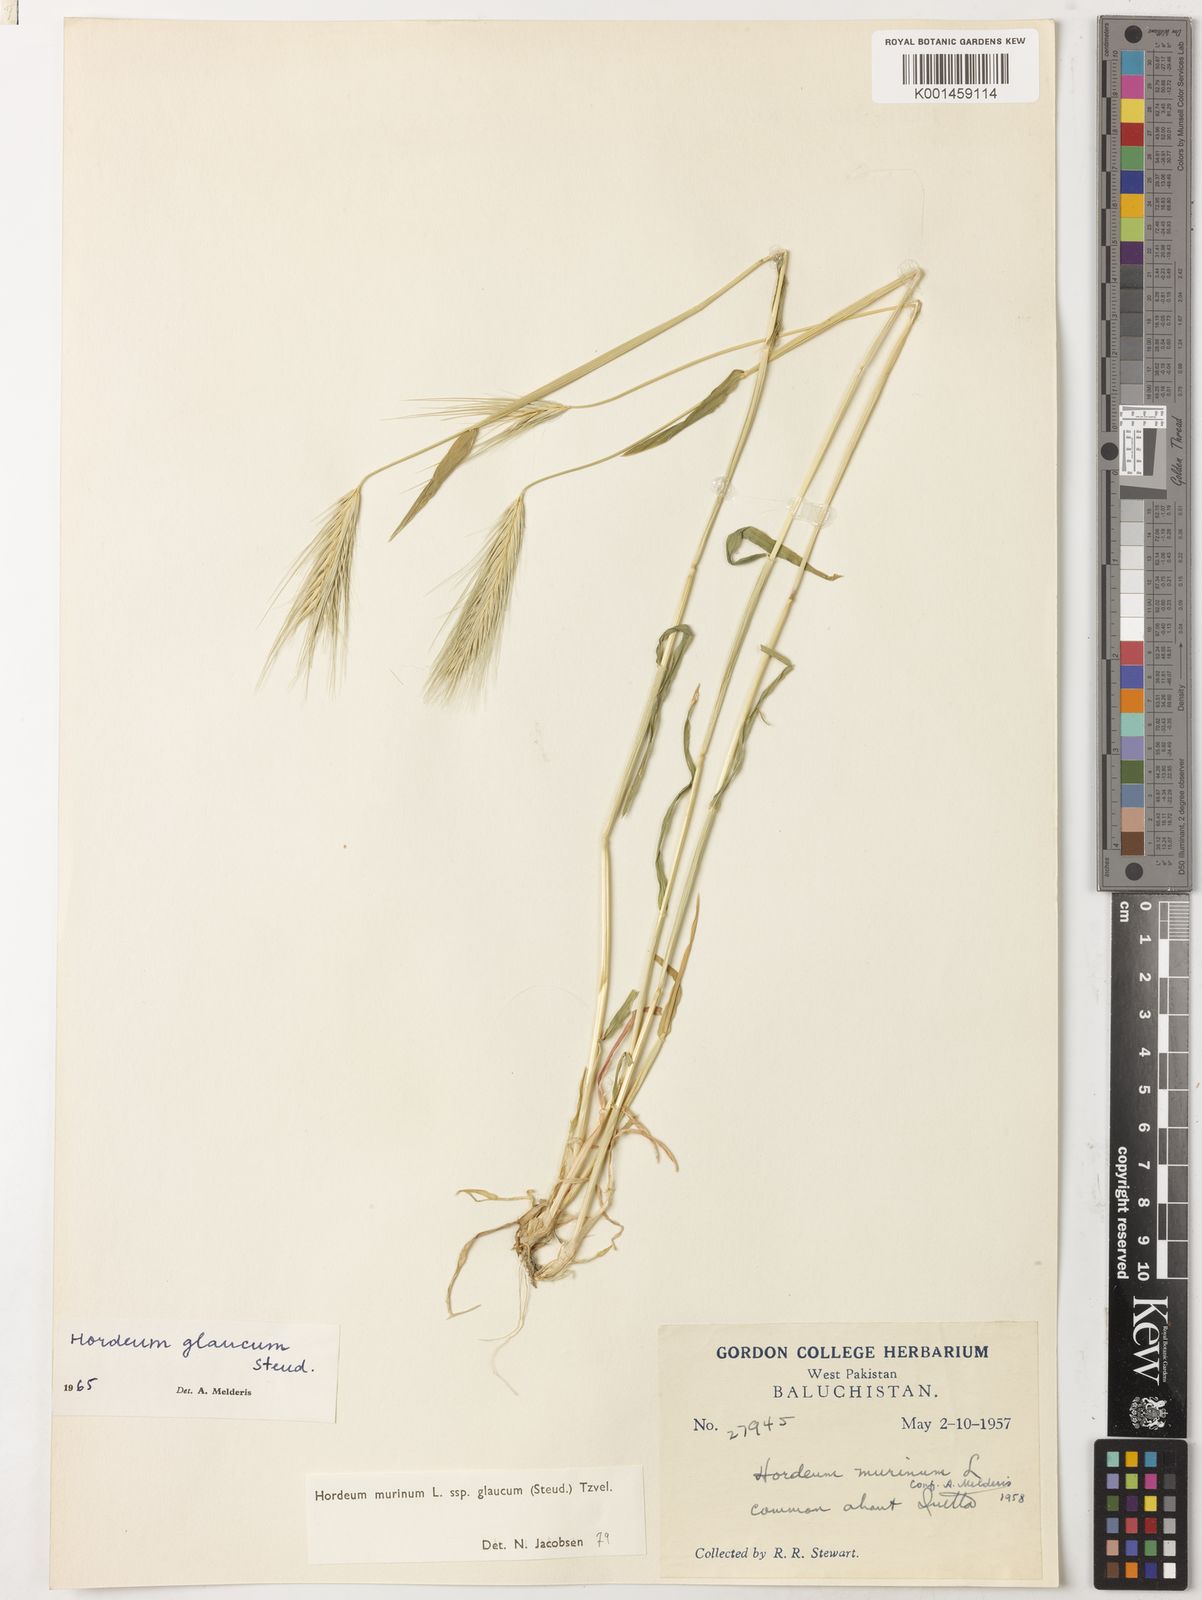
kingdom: Plantae
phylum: Tracheophyta
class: Liliopsida
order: Poales
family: Poaceae
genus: Hordeum
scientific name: Hordeum murinum
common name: Wall barley
